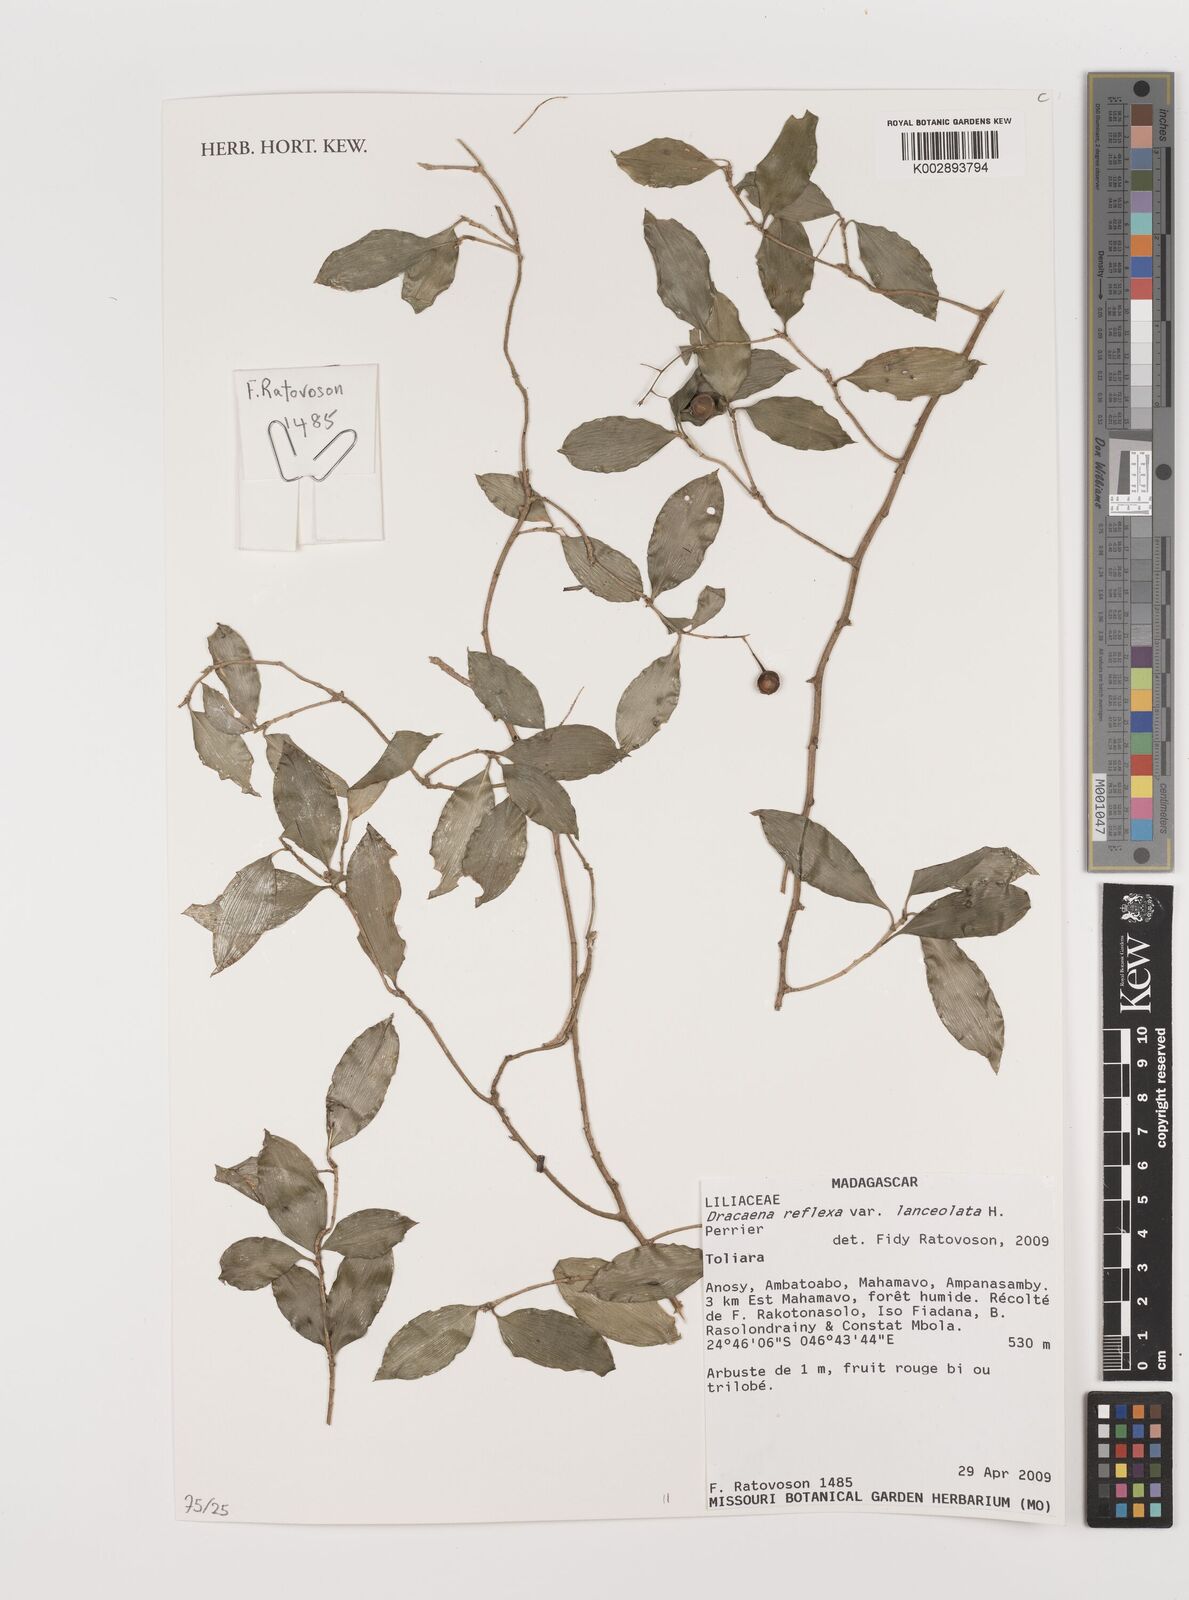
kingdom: Plantae
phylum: Tracheophyta
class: Liliopsida
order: Asparagales
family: Asparagaceae
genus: Dracaena
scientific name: Dracaena reflexa
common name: Song-of-india
